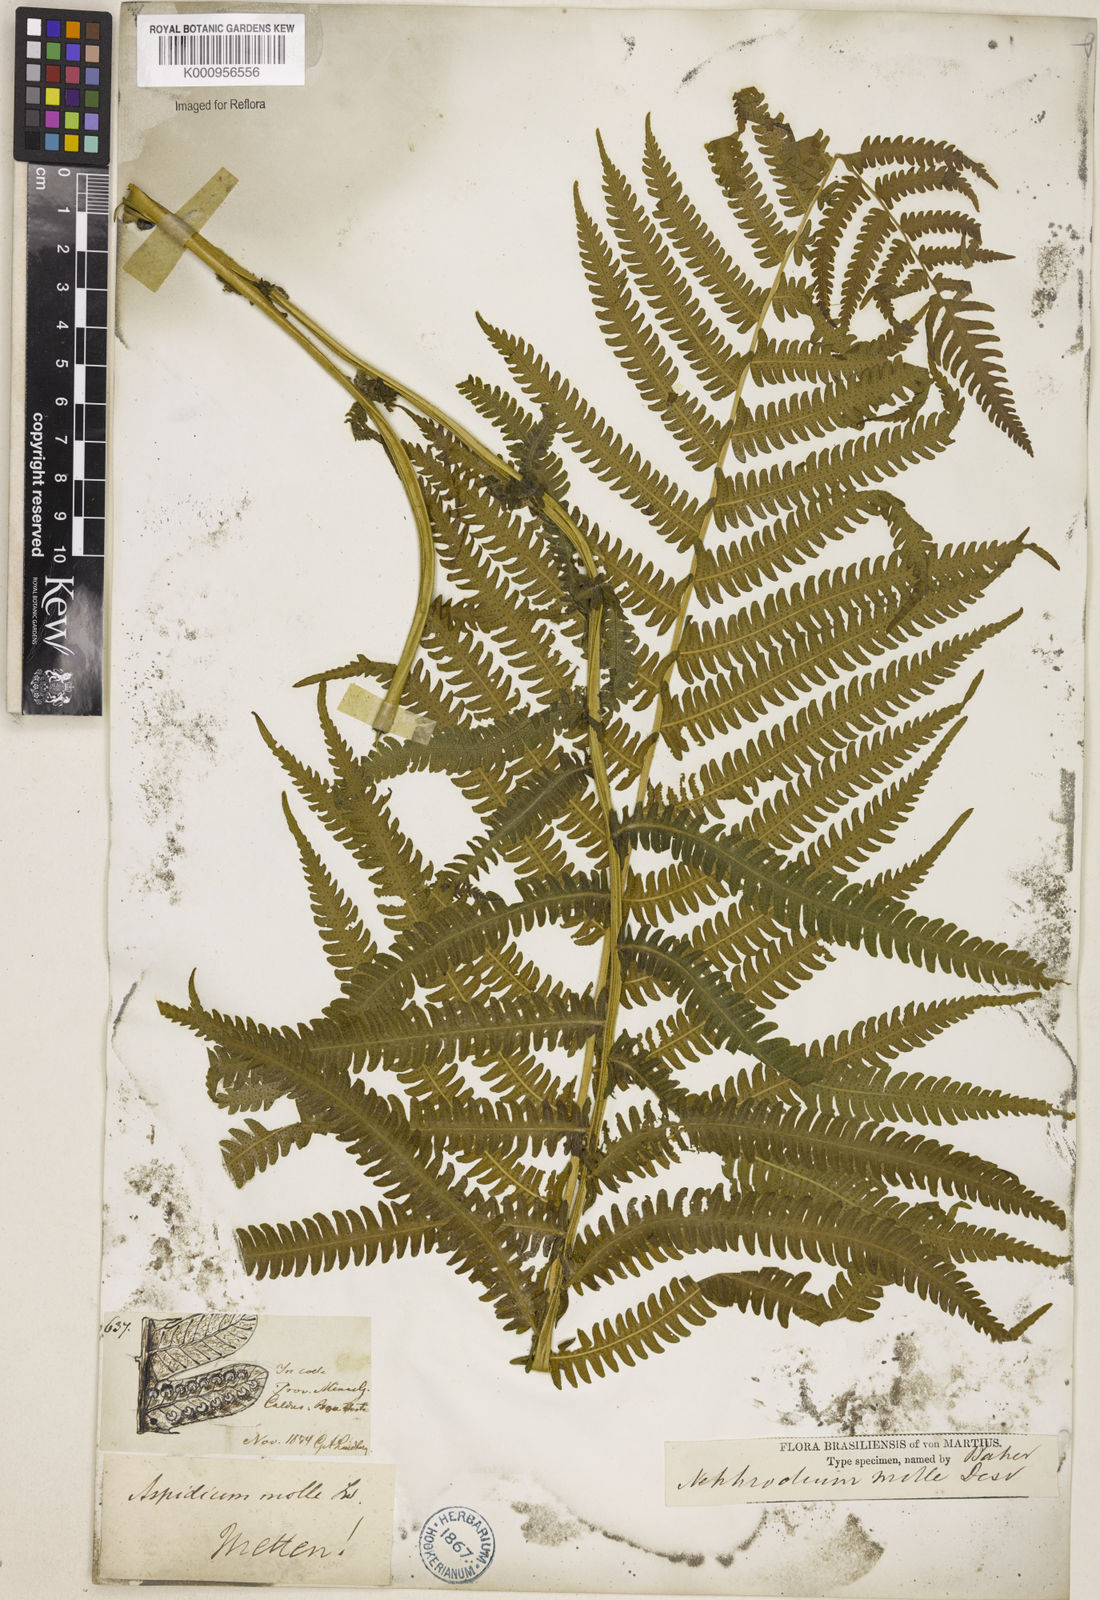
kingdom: Plantae
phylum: Tracheophyta
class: Polypodiopsida
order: Polypodiales
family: Thelypteridaceae
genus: Christella
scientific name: Christella hispidula
